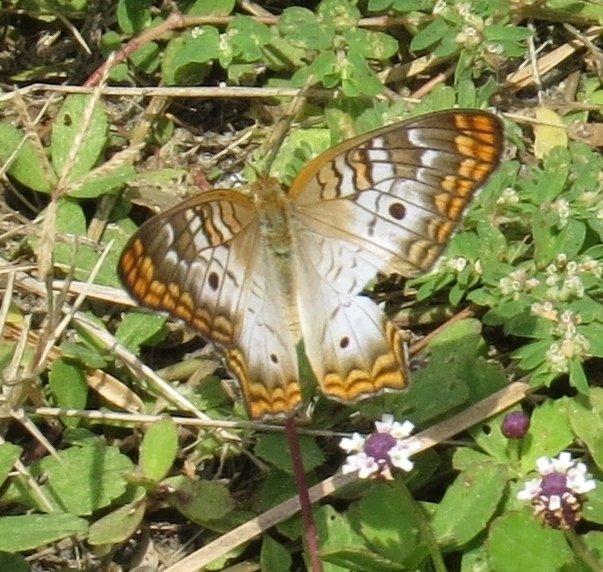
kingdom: Animalia
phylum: Arthropoda
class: Insecta
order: Lepidoptera
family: Nymphalidae
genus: Anartia
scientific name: Anartia jatrophae
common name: White Peacock
